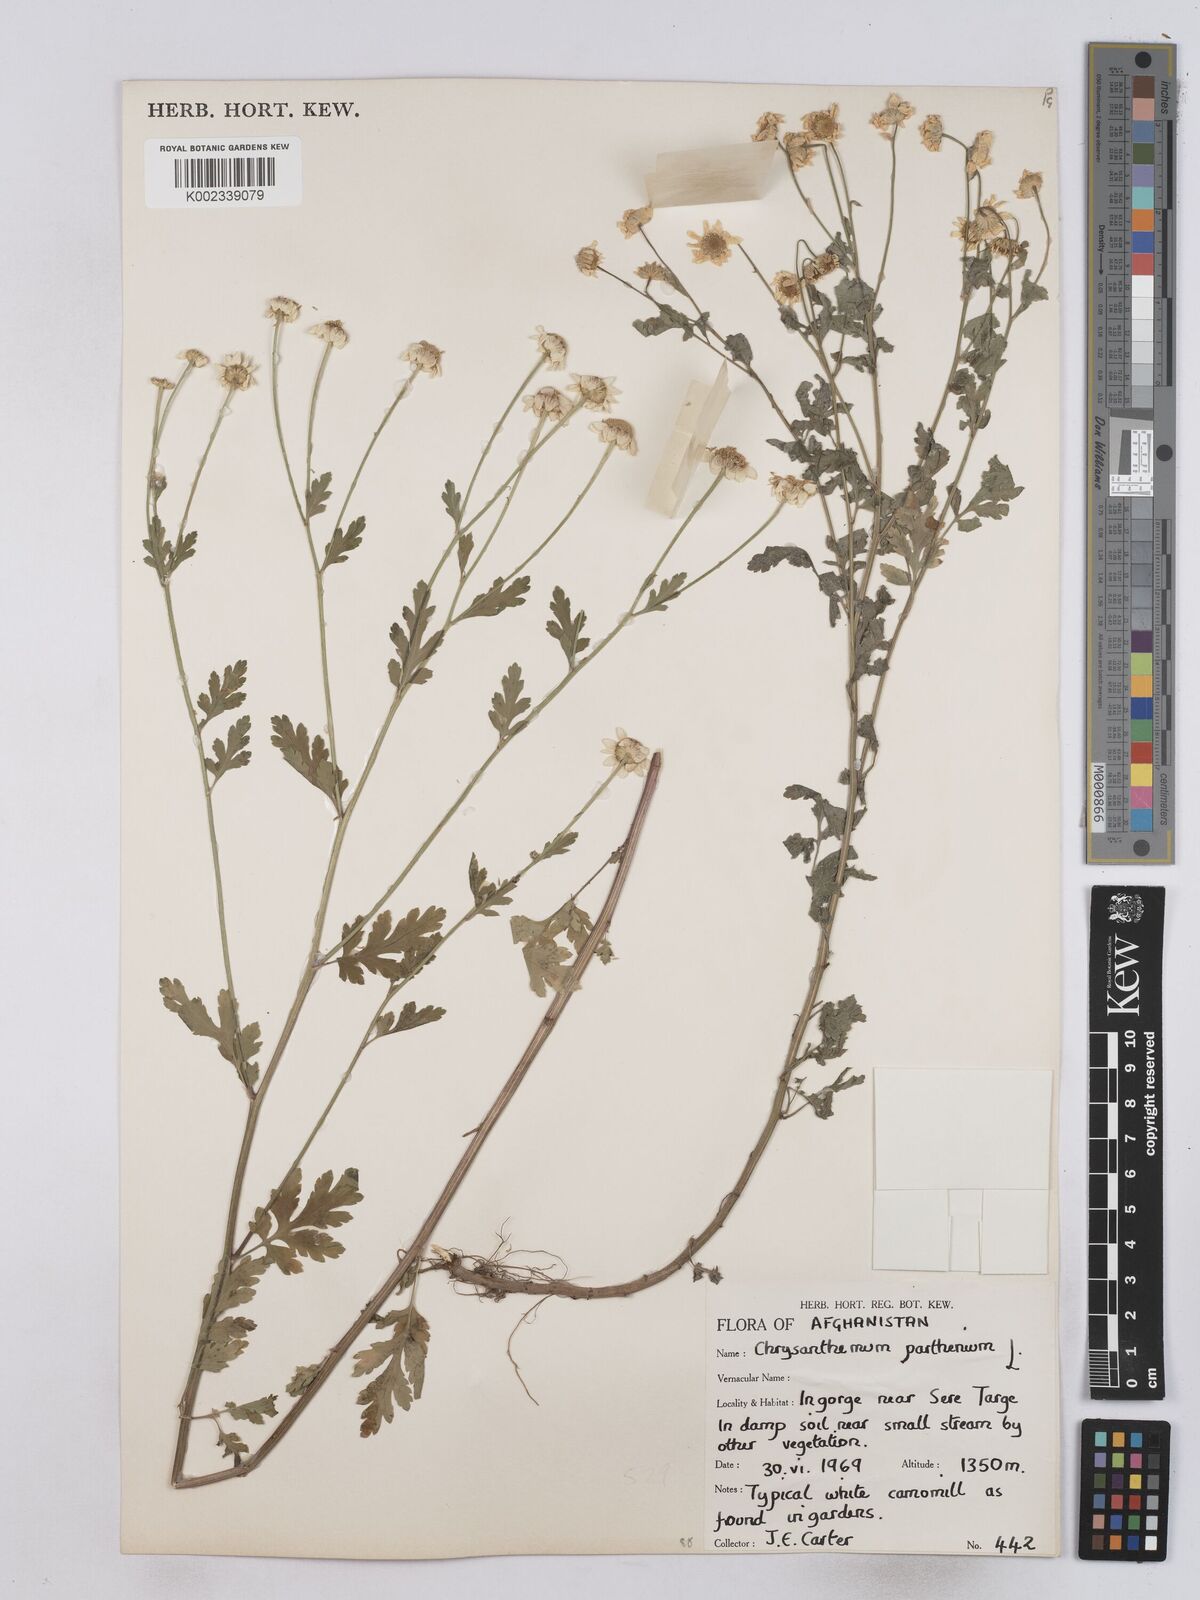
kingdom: Plantae
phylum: Tracheophyta
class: Magnoliopsida
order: Asterales
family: Asteraceae
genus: Tanacetum
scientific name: Tanacetum parthenium
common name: Feverfew
